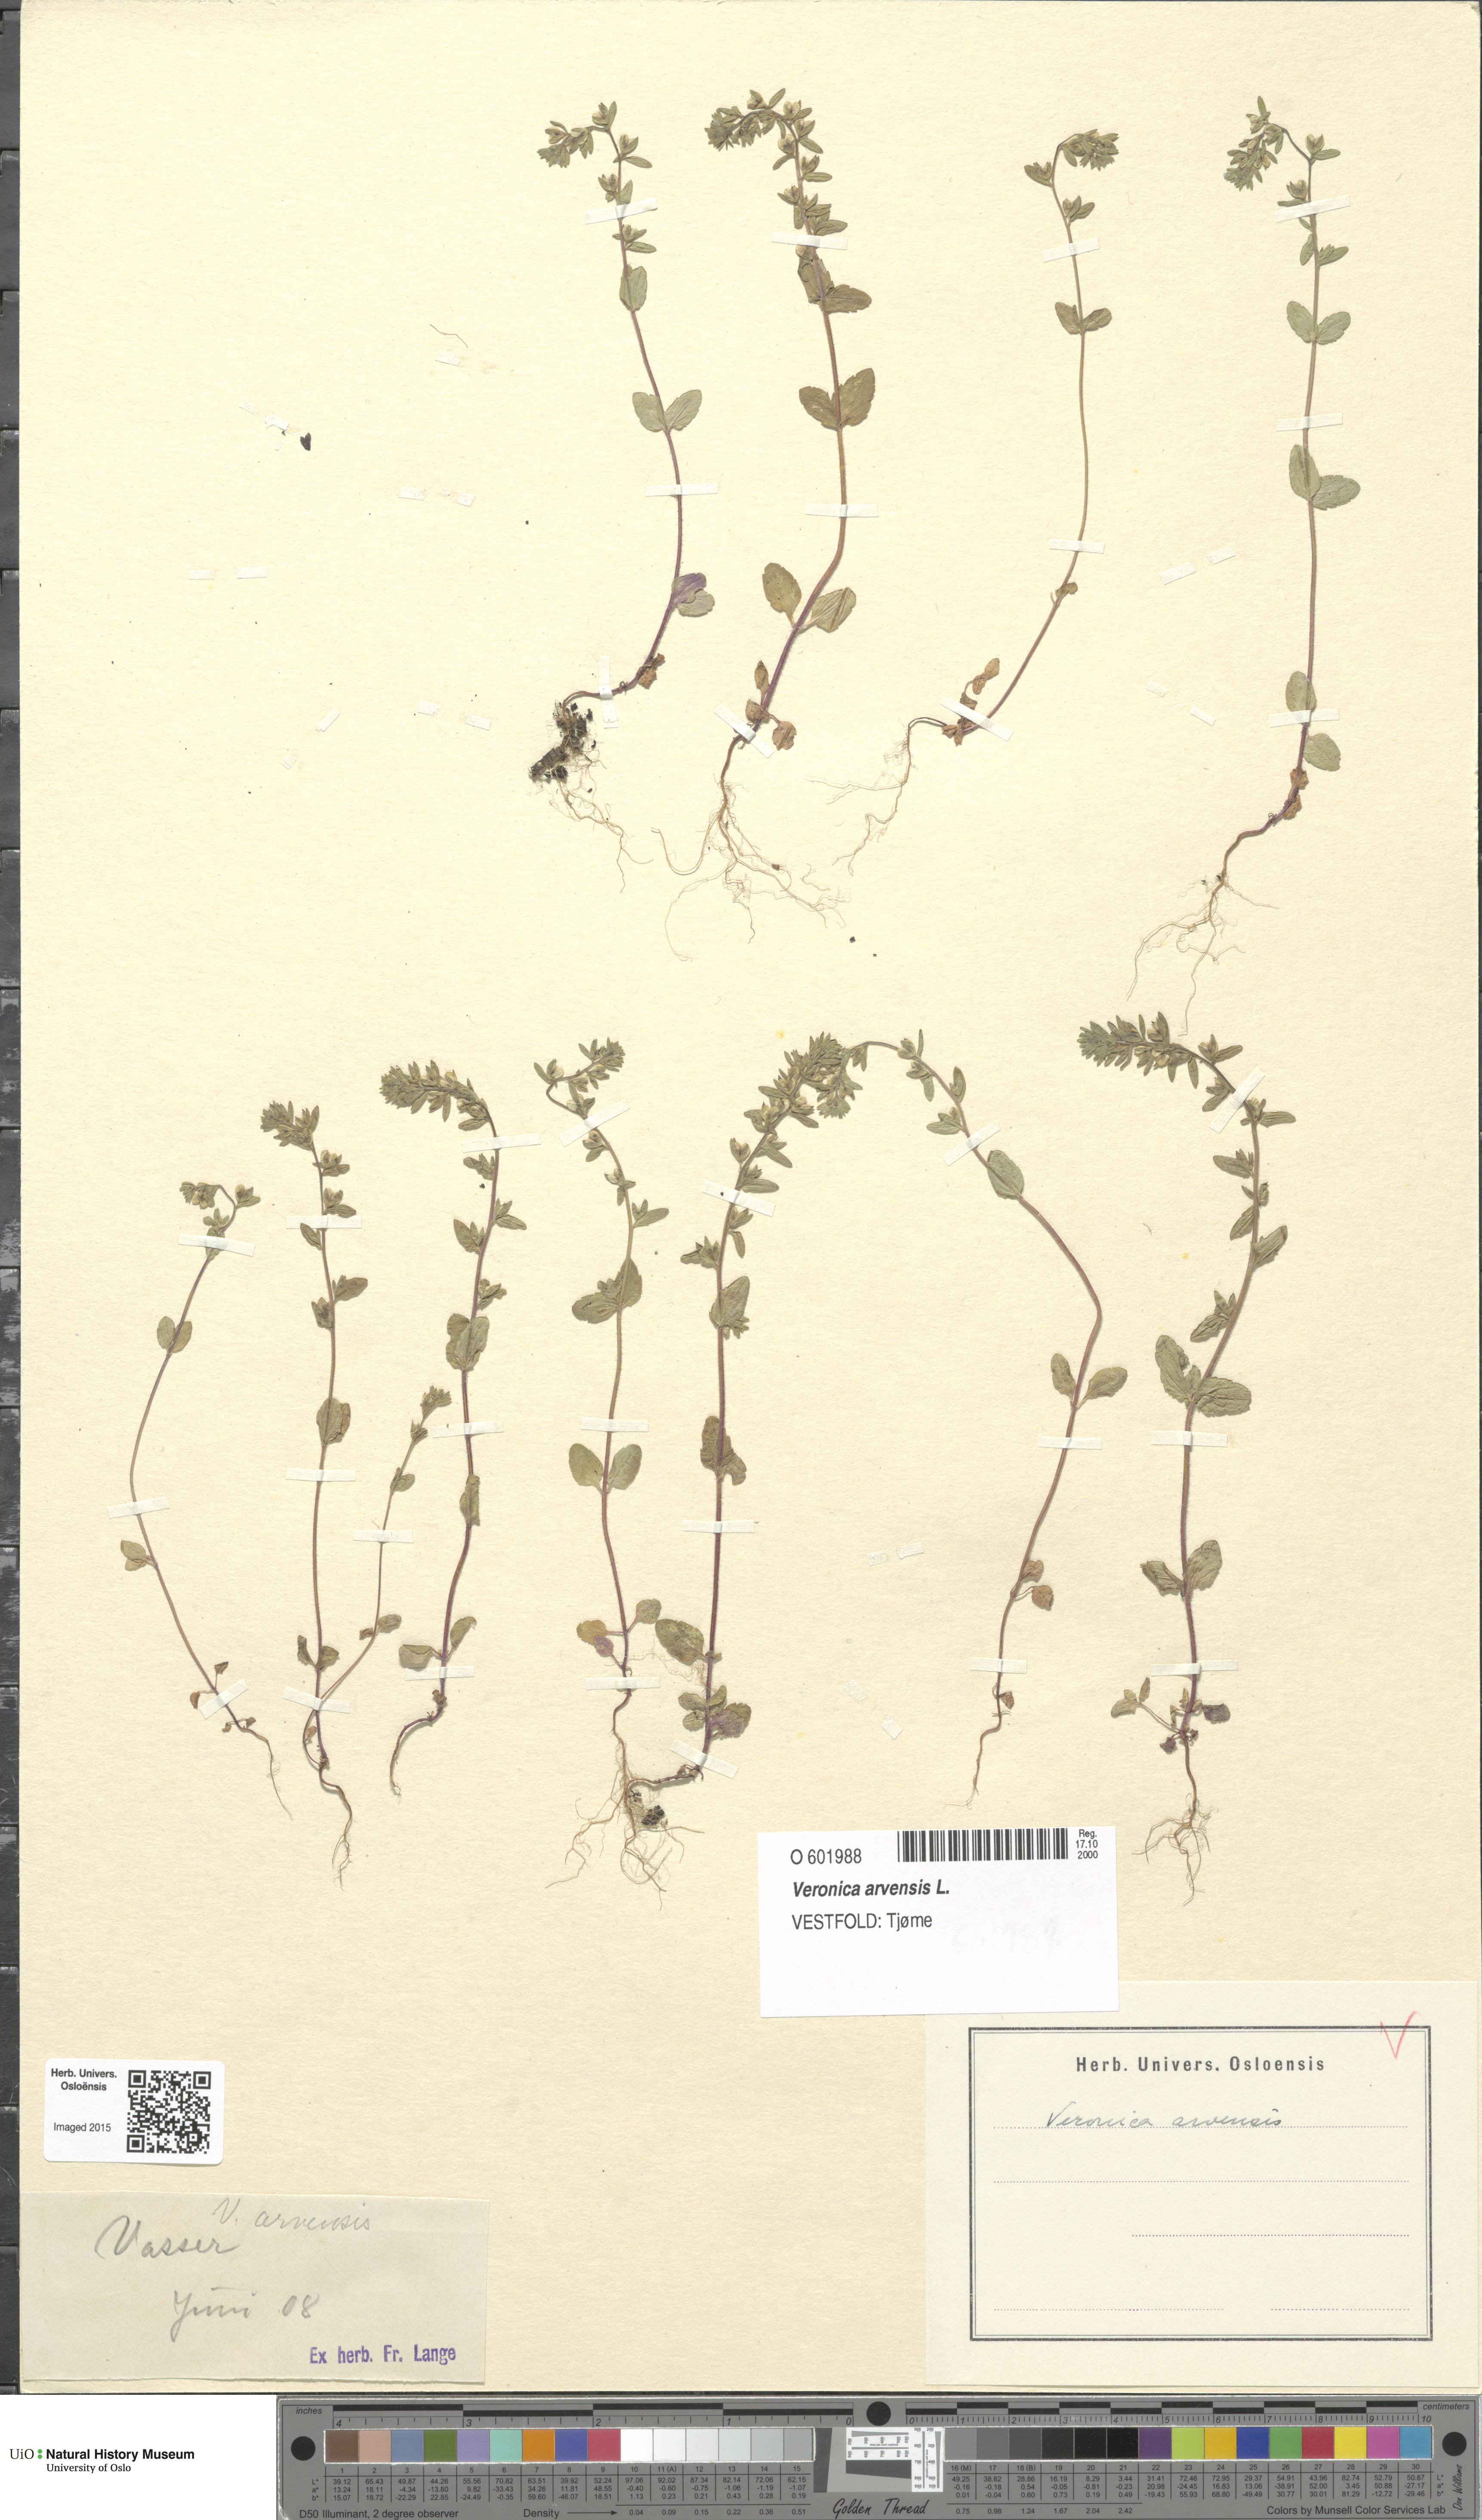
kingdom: Plantae
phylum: Tracheophyta
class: Magnoliopsida
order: Lamiales
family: Plantaginaceae
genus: Veronica
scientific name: Veronica arvensis
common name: Corn speedwell
